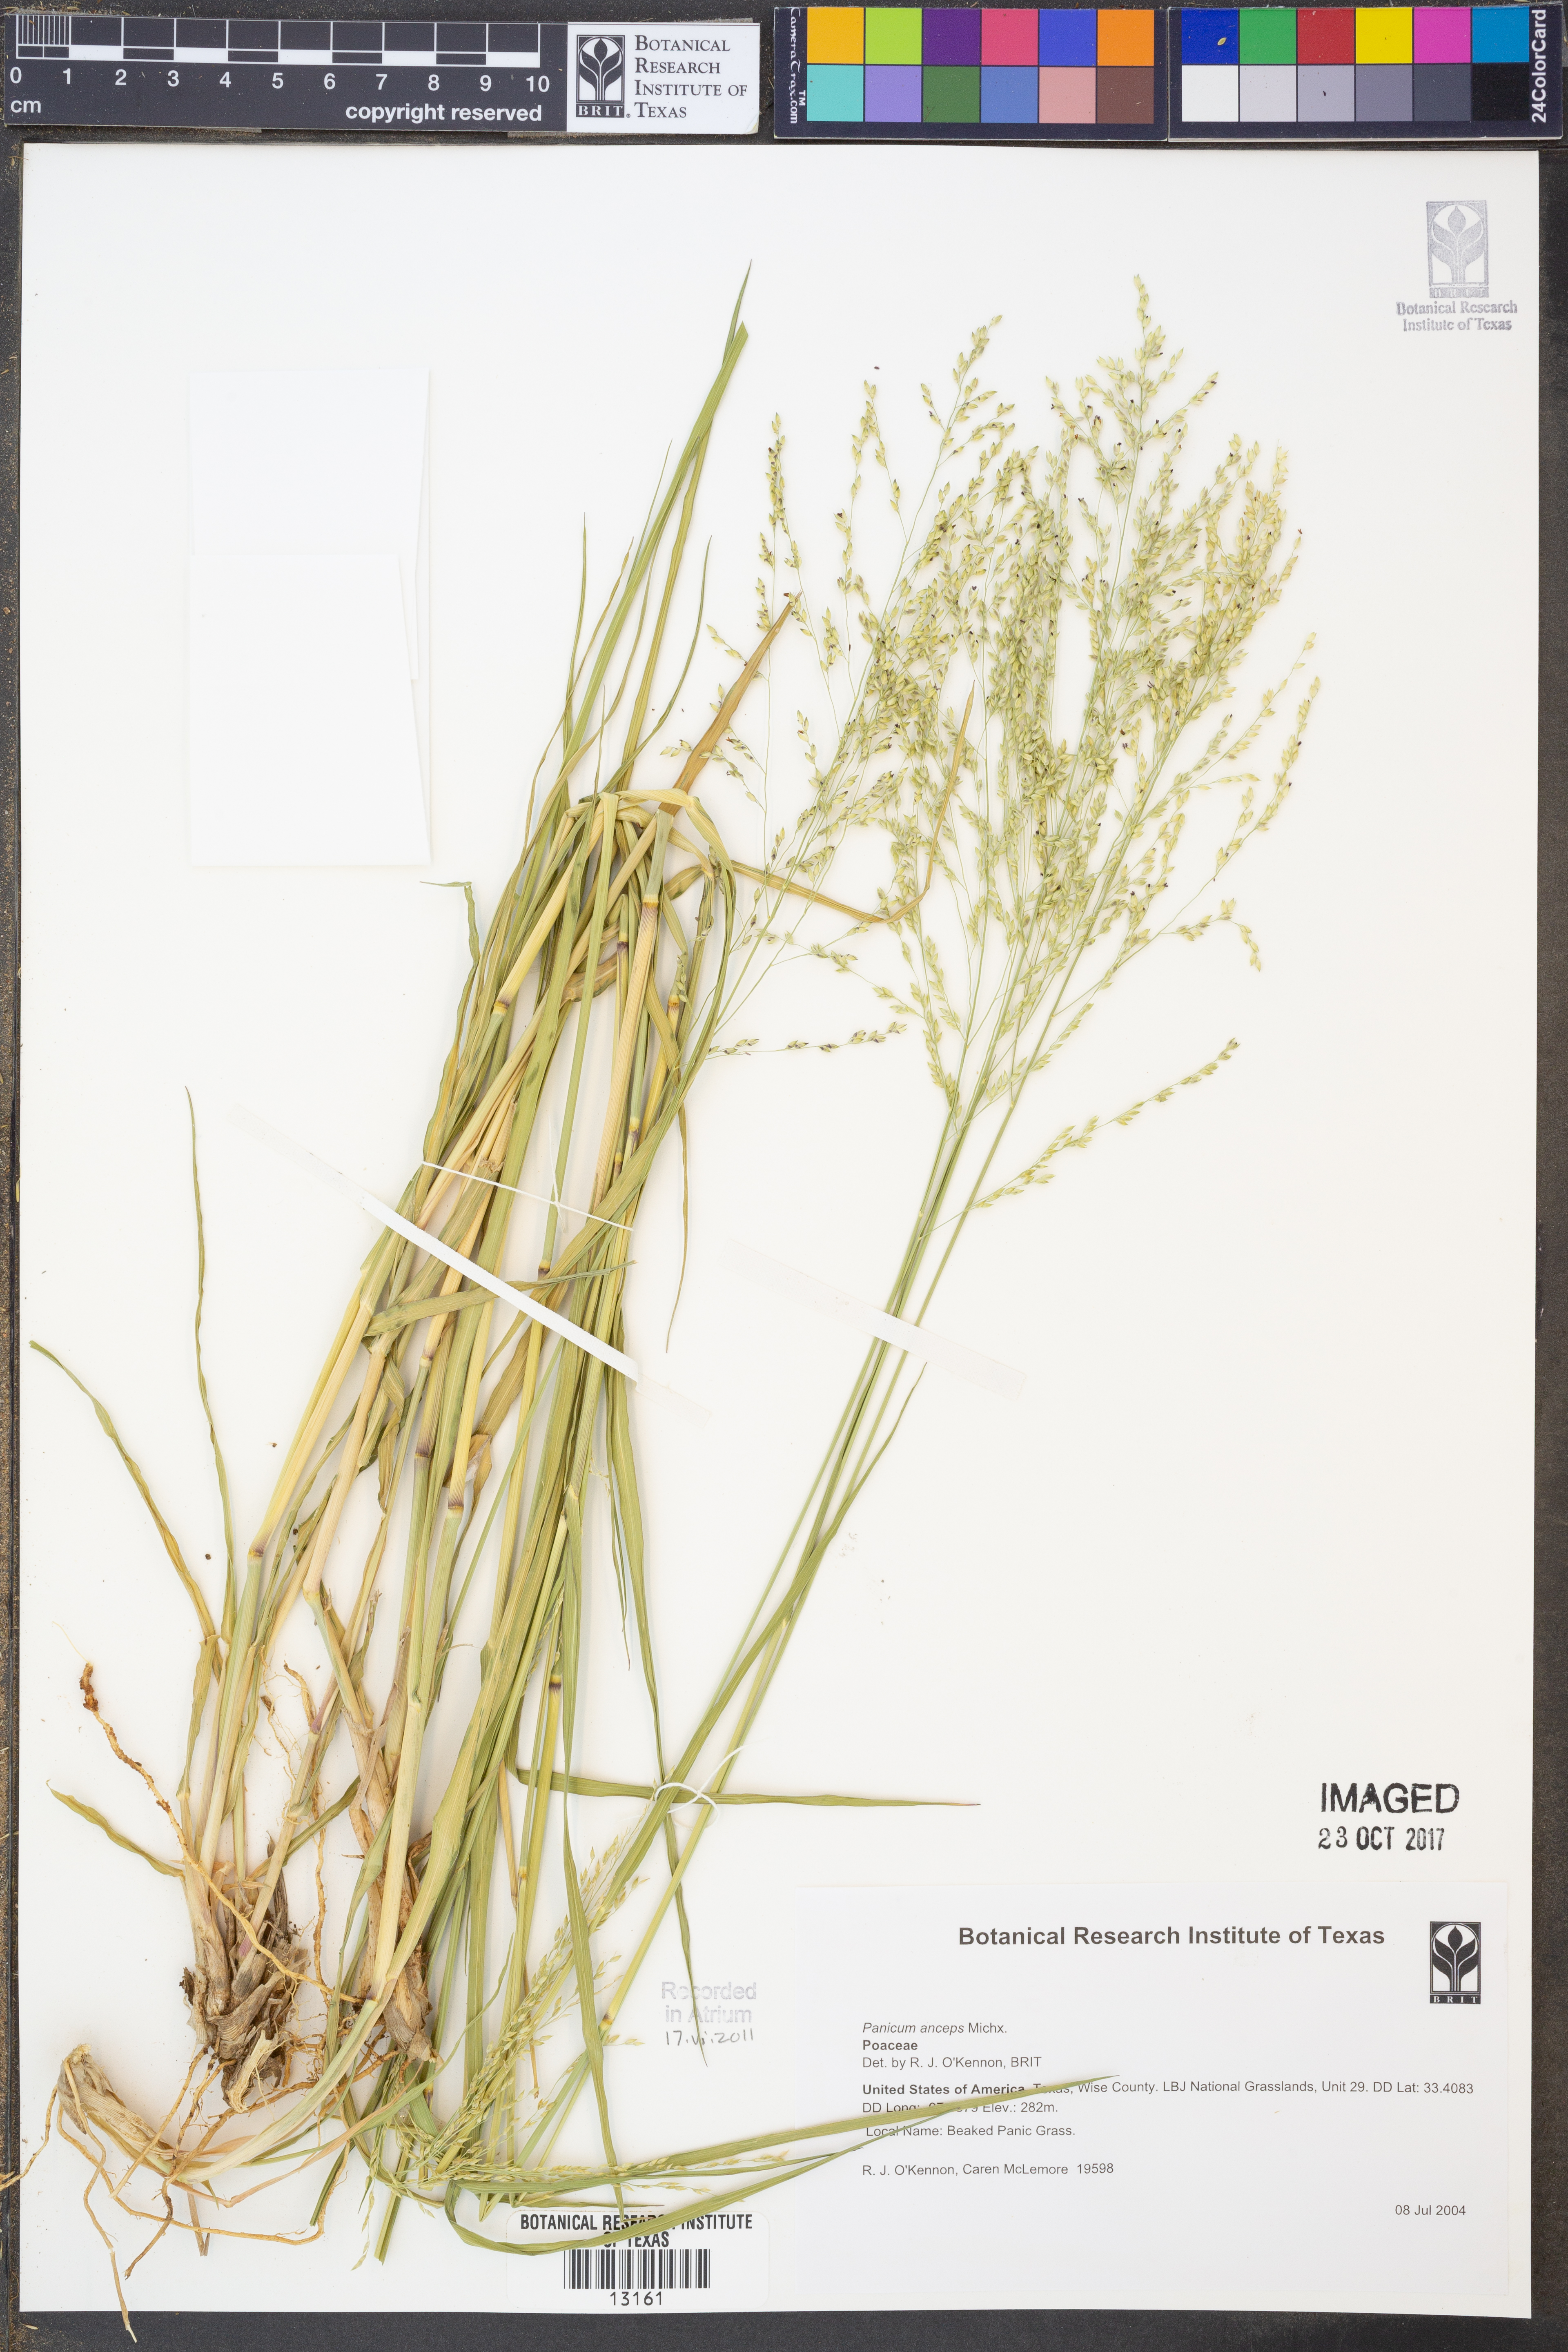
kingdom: Plantae
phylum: Tracheophyta
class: Liliopsida
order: Poales
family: Poaceae
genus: Coleataenia
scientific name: Coleataenia anceps
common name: Beaked panic grass
